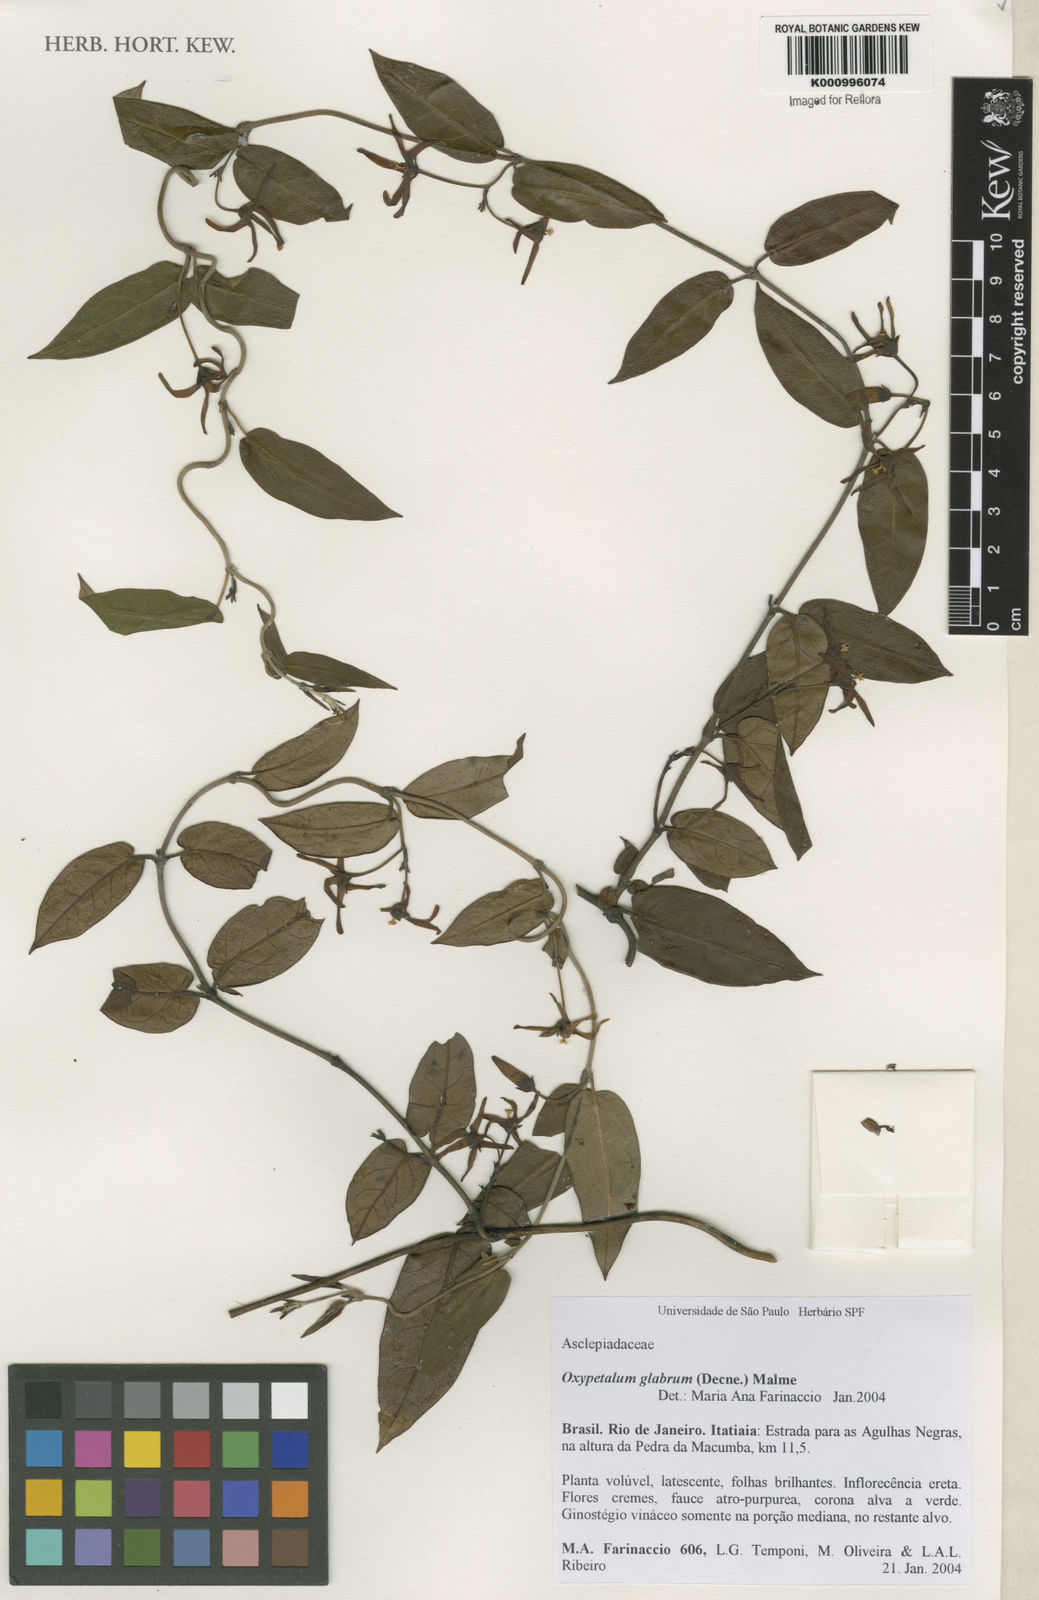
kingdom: Plantae
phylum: Tracheophyta
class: Magnoliopsida
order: Gentianales
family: Apocynaceae
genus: Oxypetalum
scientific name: Oxypetalum insigne
